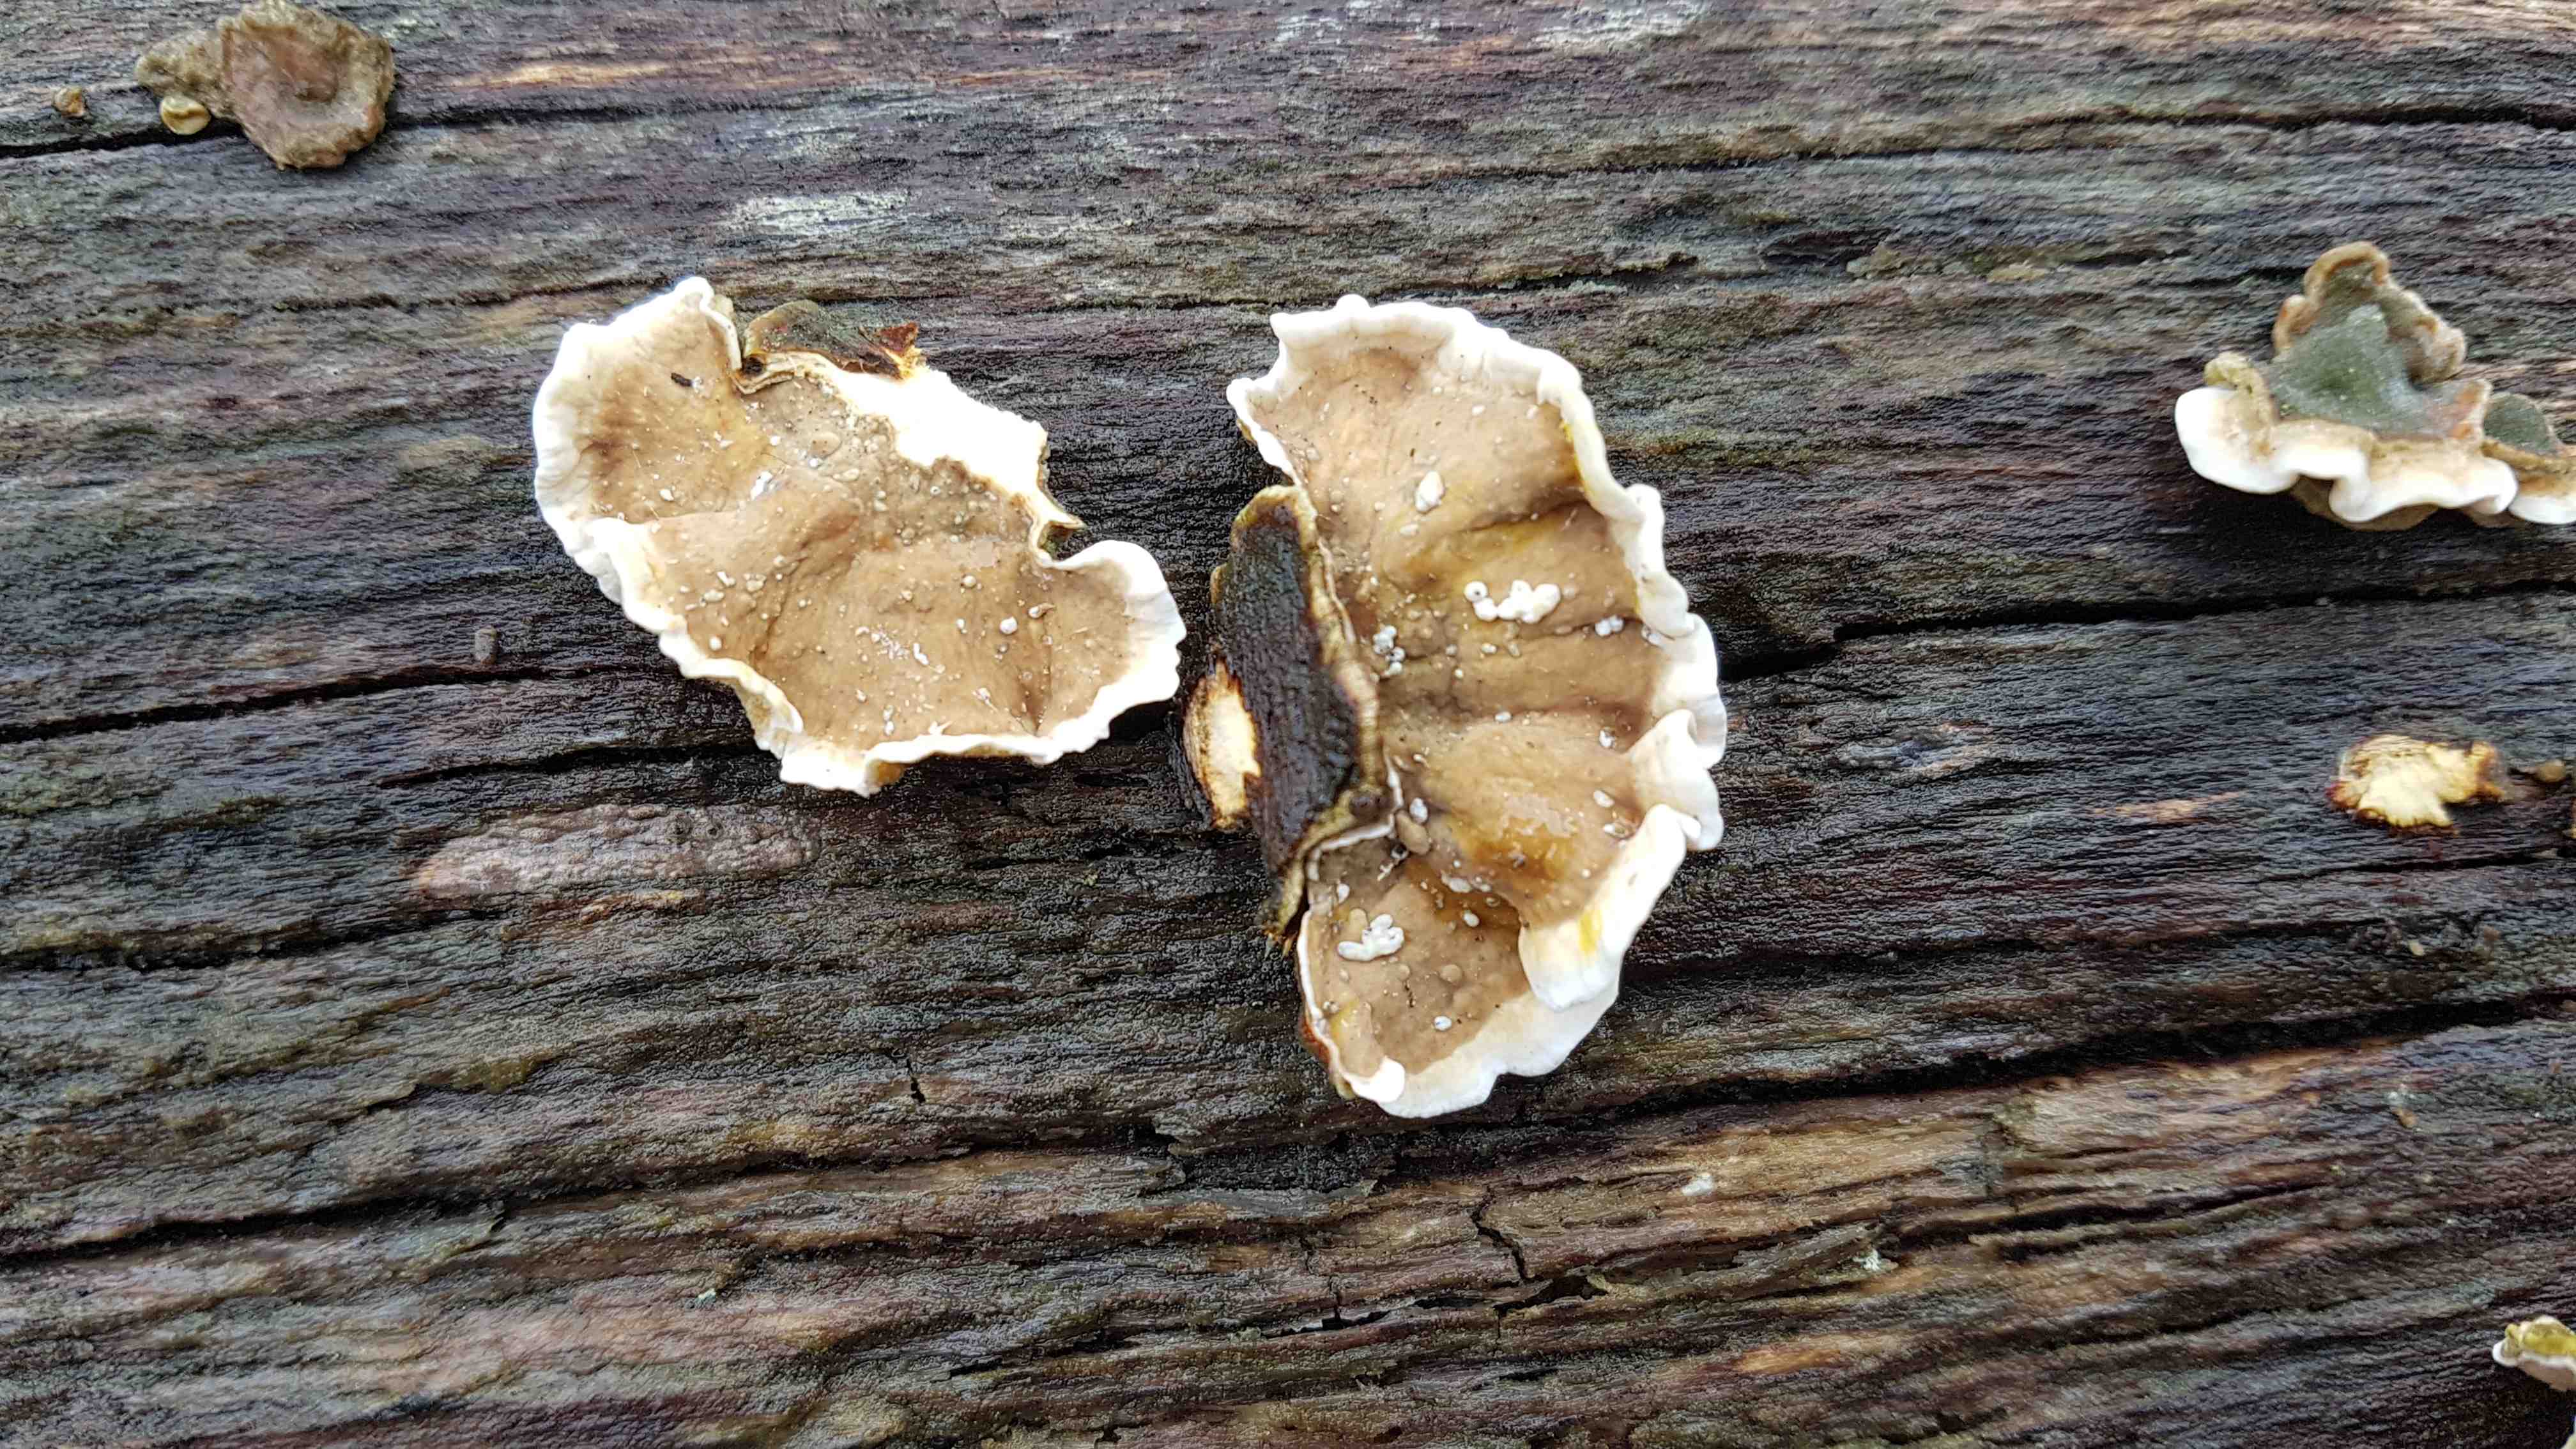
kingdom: Fungi
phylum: Basidiomycota
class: Agaricomycetes
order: Russulales
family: Stereaceae
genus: Stereum
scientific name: Stereum hirsutum
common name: håret lædersvamp
